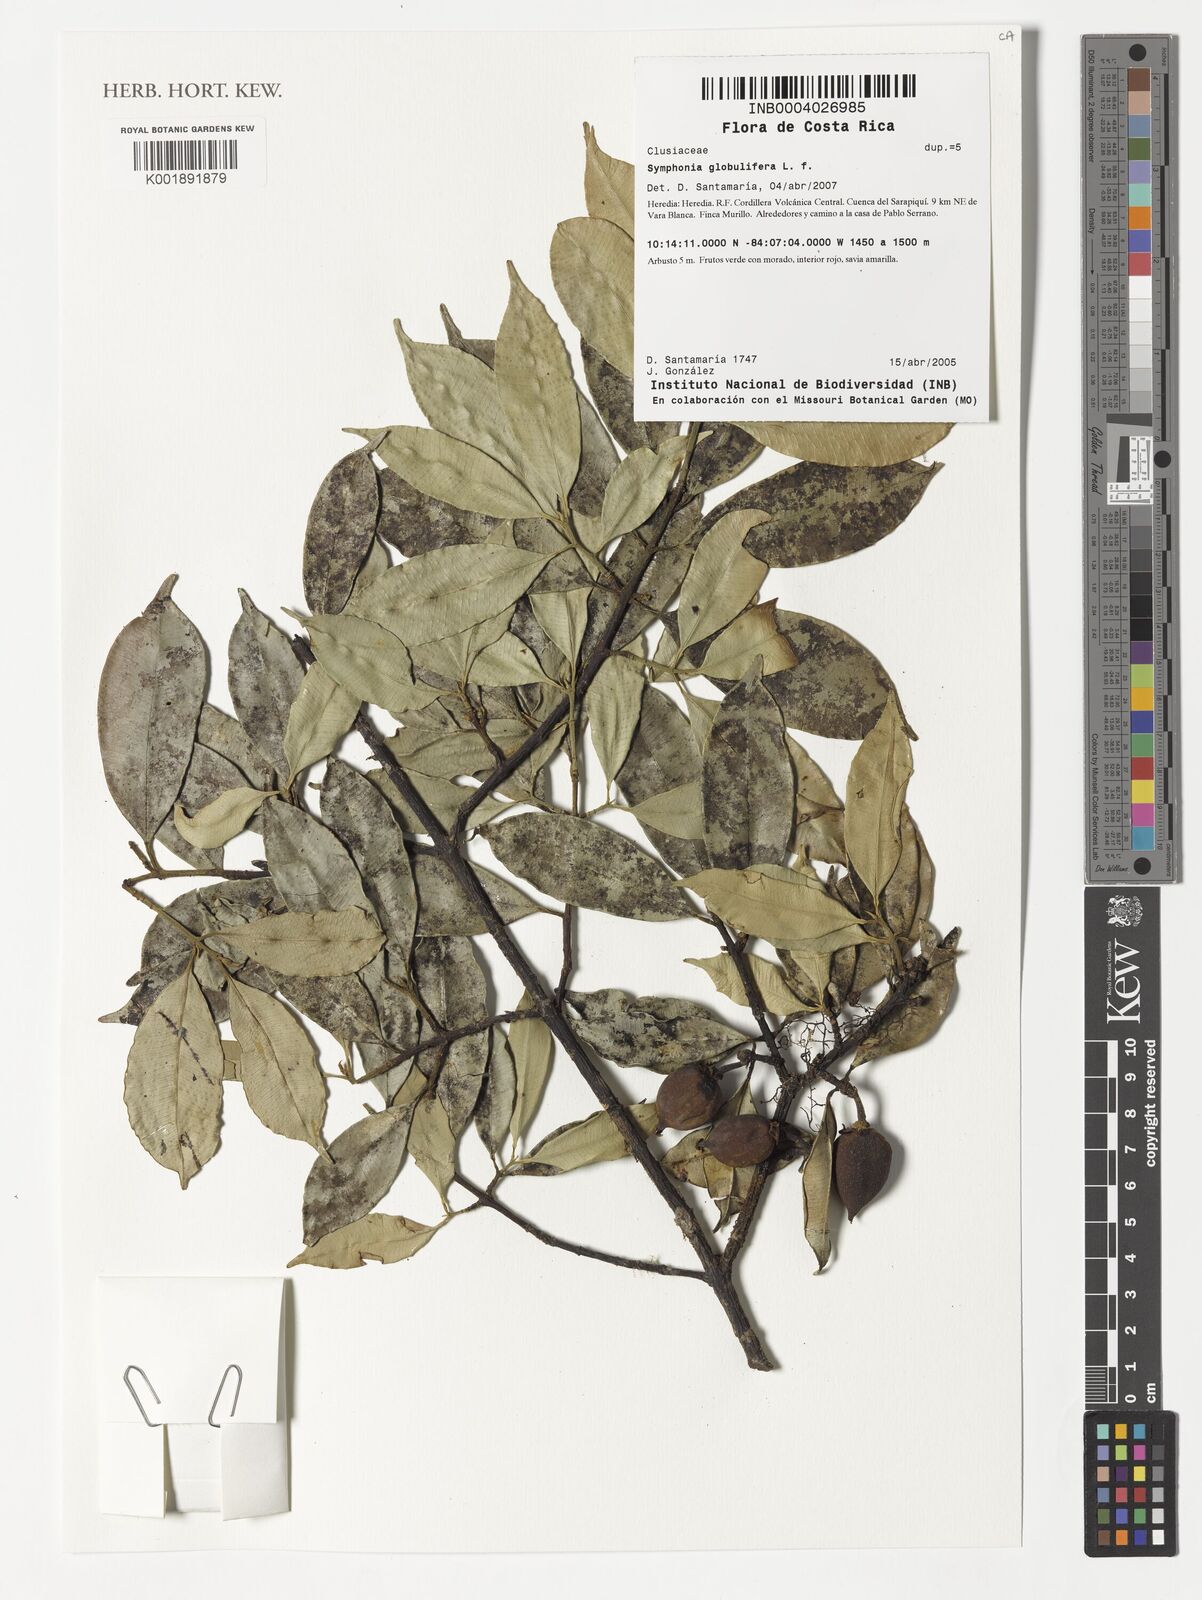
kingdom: Plantae
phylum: Tracheophyta
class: Magnoliopsida
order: Malpighiales
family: Clusiaceae
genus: Symphonia
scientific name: Symphonia globulifera
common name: Boarwood
